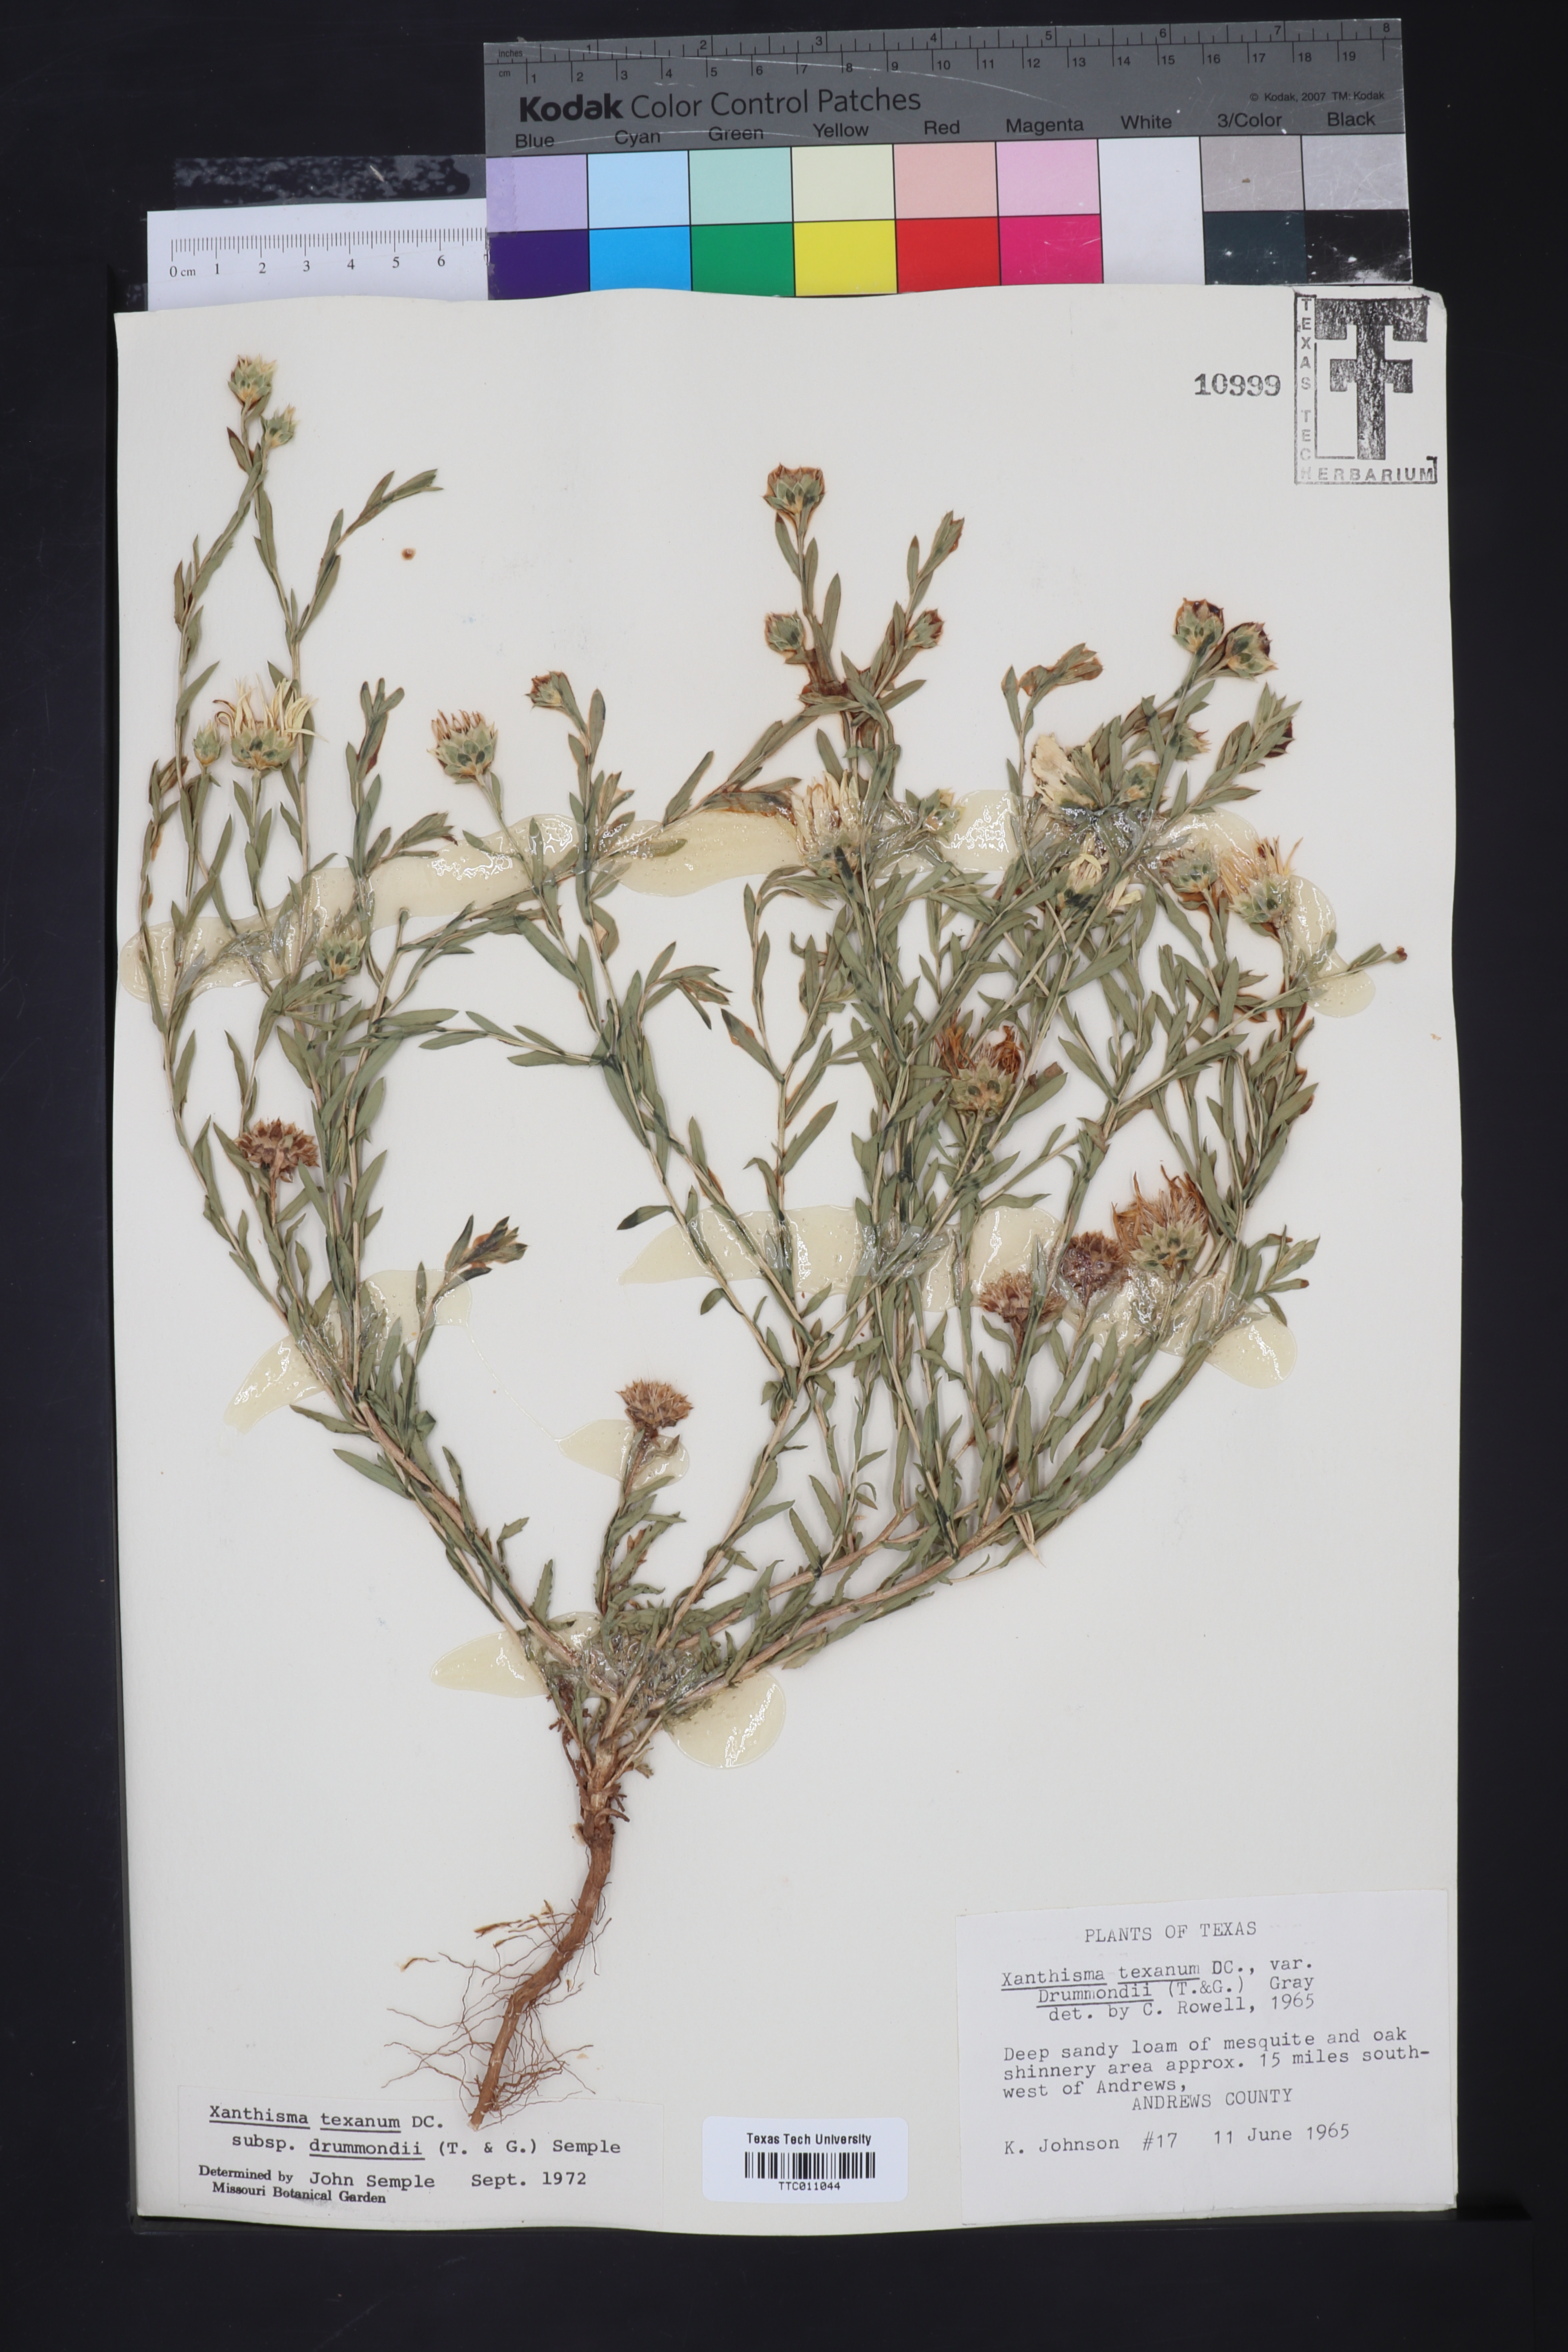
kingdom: Plantae
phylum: Tracheophyta
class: Magnoliopsida
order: Asterales
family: Asteraceae
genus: Xanthisma
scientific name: Xanthisma texanum
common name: Texas sleepy daisy
